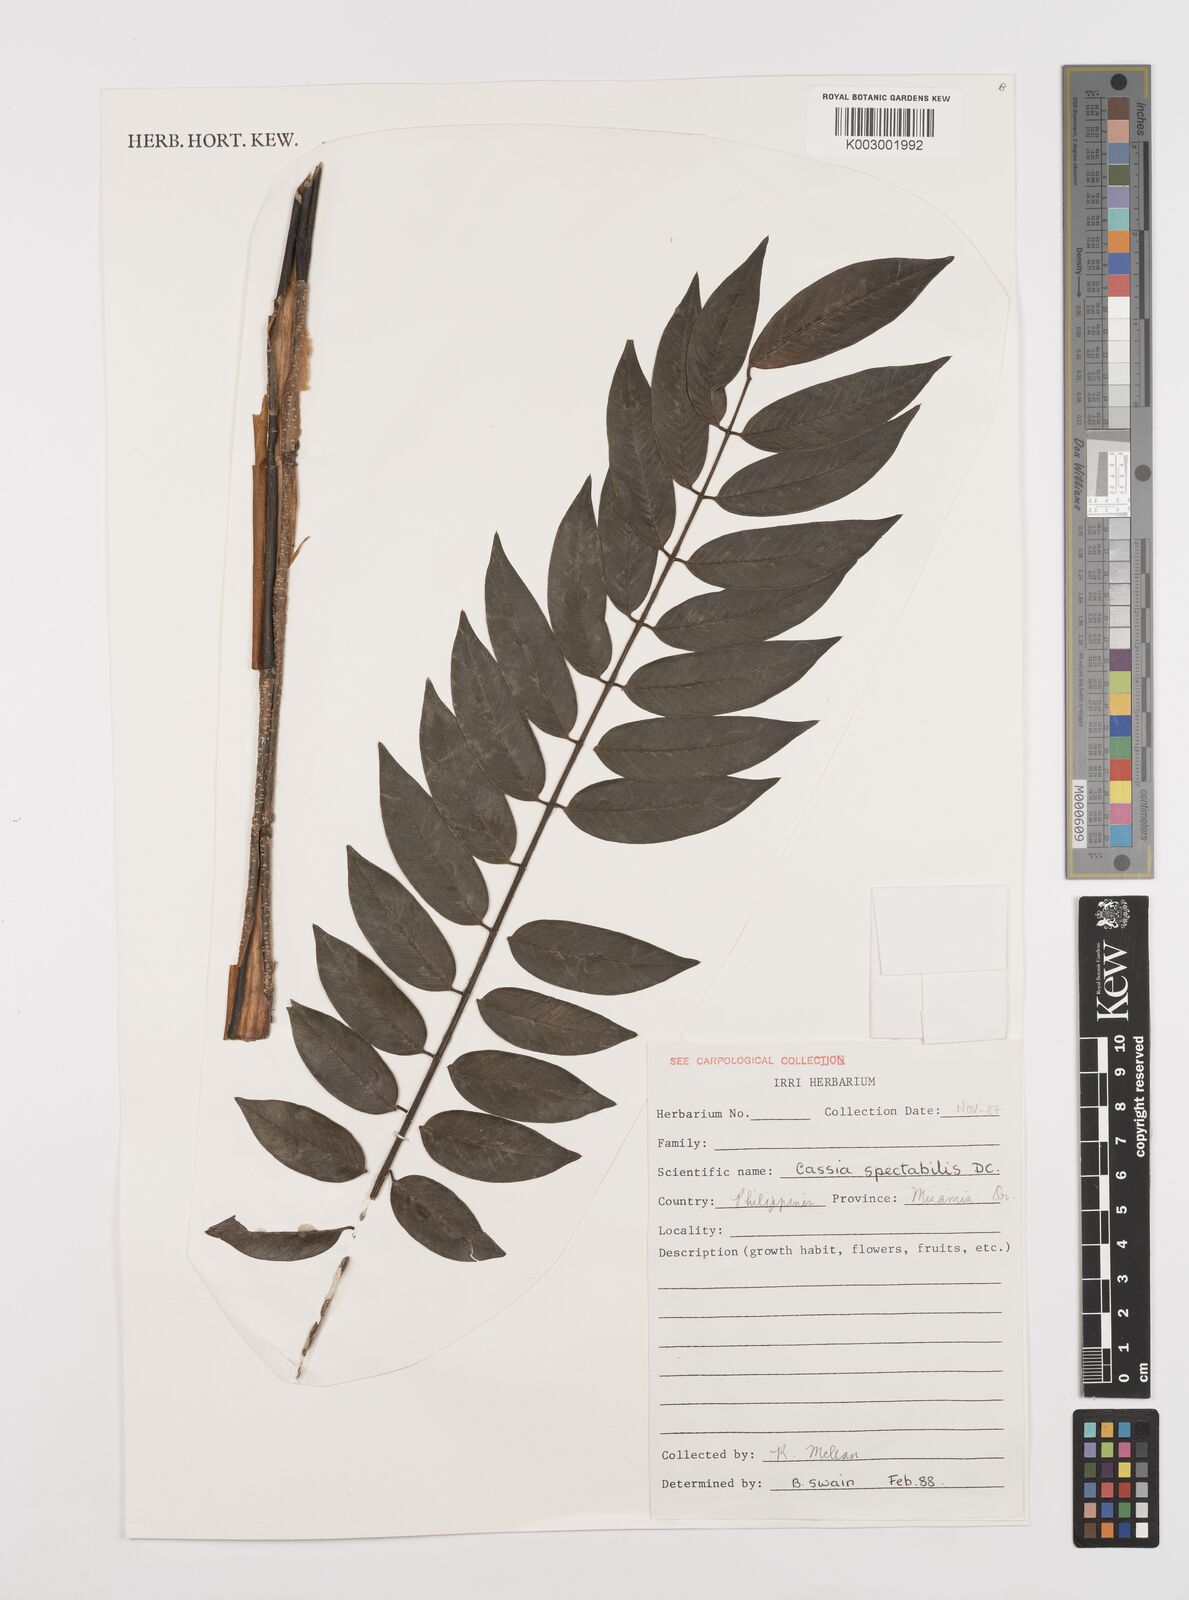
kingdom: Plantae
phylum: Tracheophyta
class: Magnoliopsida
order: Fabales
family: Fabaceae
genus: Senna
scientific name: Senna spectabilis
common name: Casia amarilla
